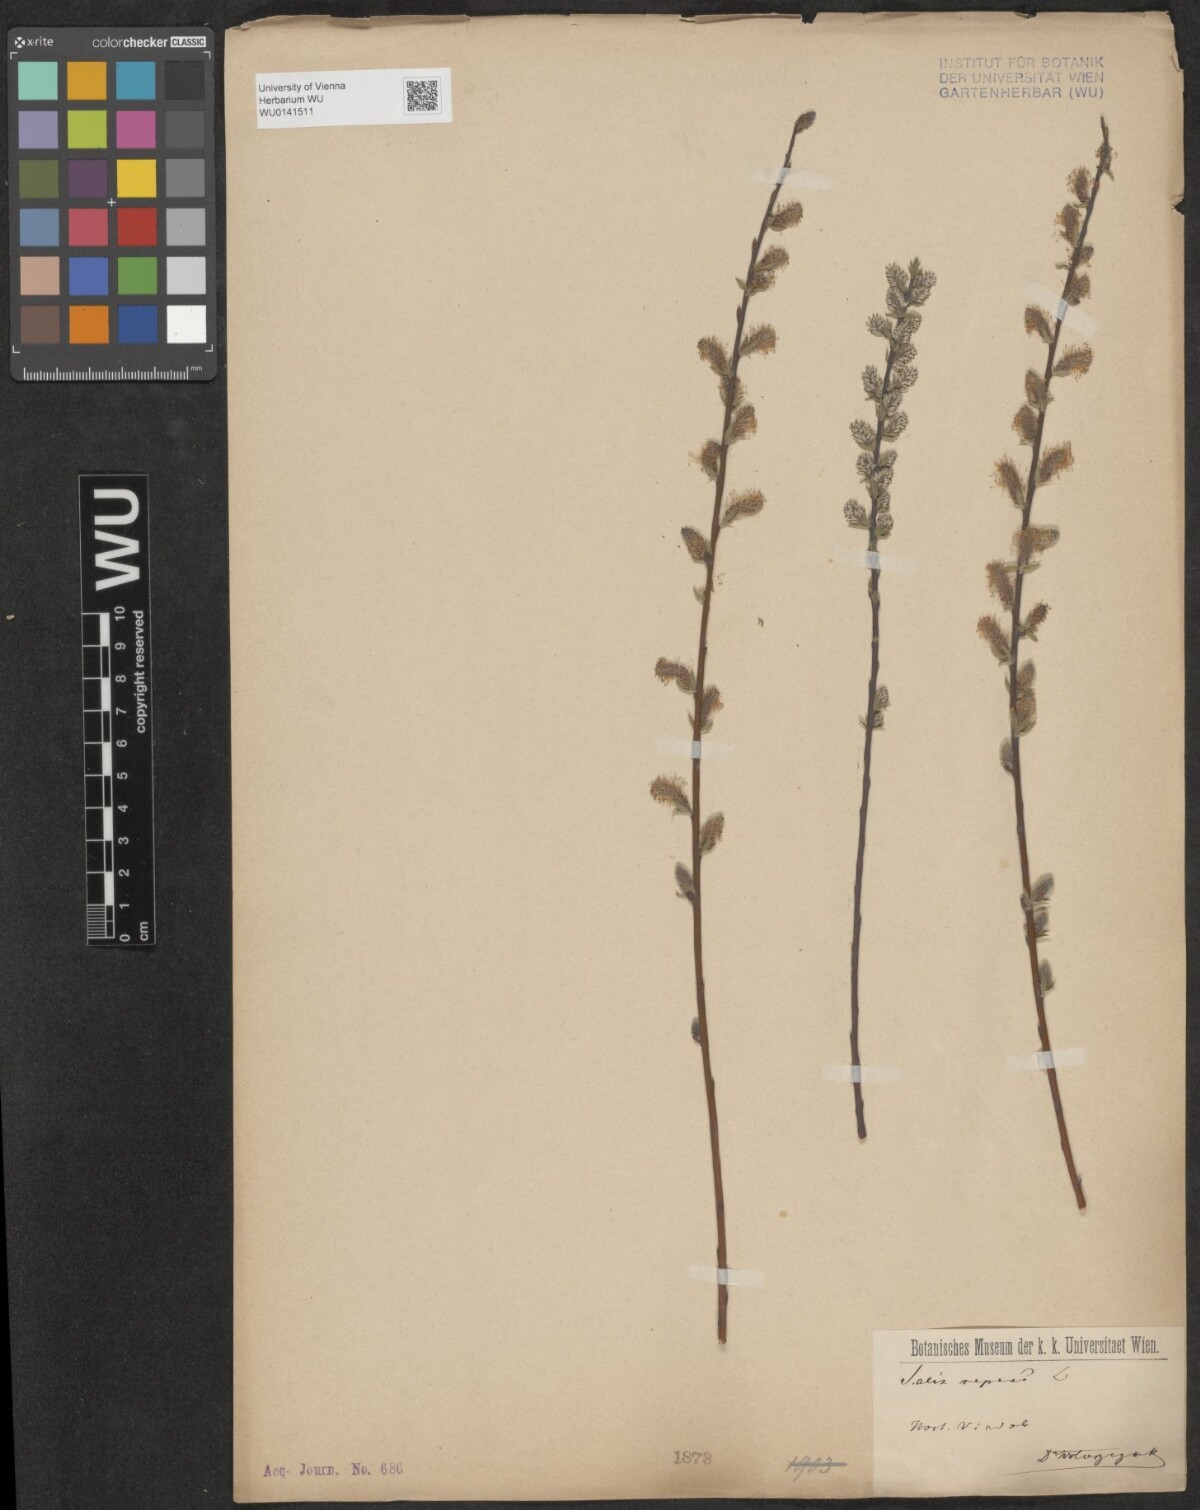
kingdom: Plantae
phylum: Tracheophyta
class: Magnoliopsida
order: Malpighiales
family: Salicaceae
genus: Salix
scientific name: Salix repens
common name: Creeping willow
